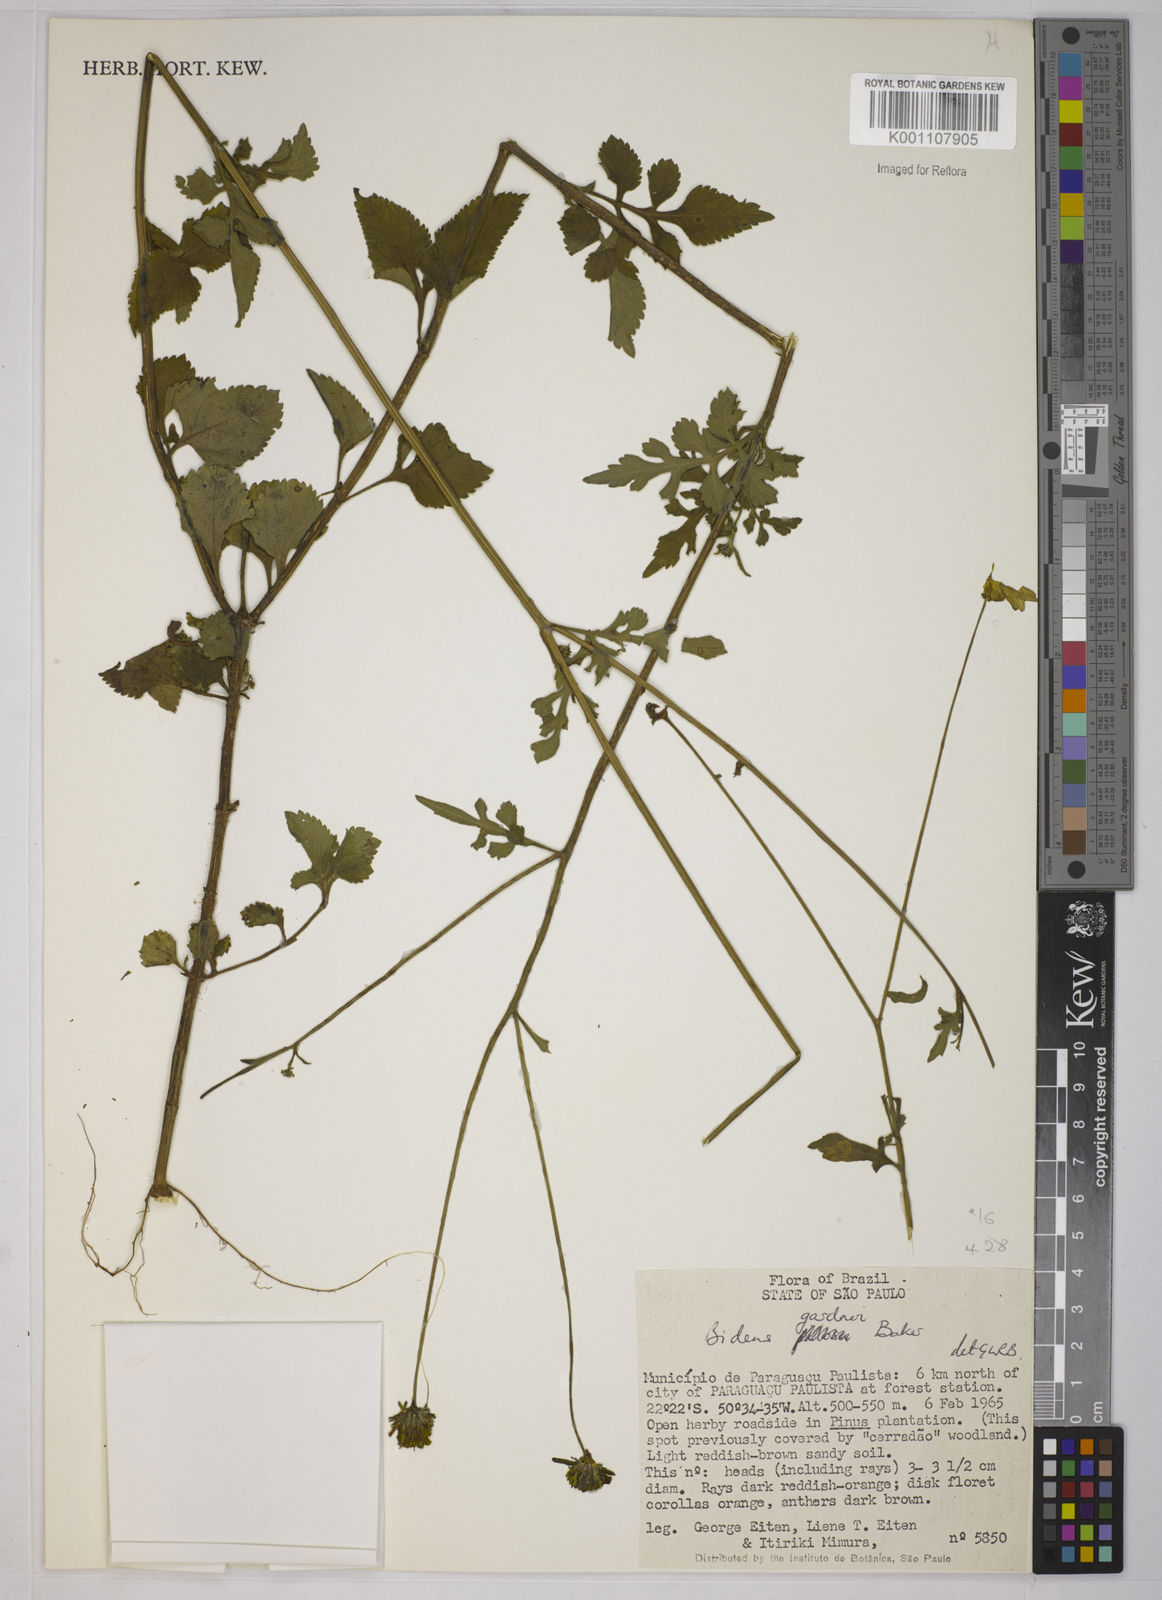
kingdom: Plantae
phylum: Tracheophyta
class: Magnoliopsida
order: Asterales
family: Asteraceae
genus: Bidens
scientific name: Bidens gardneri
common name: Ridge beggartick
